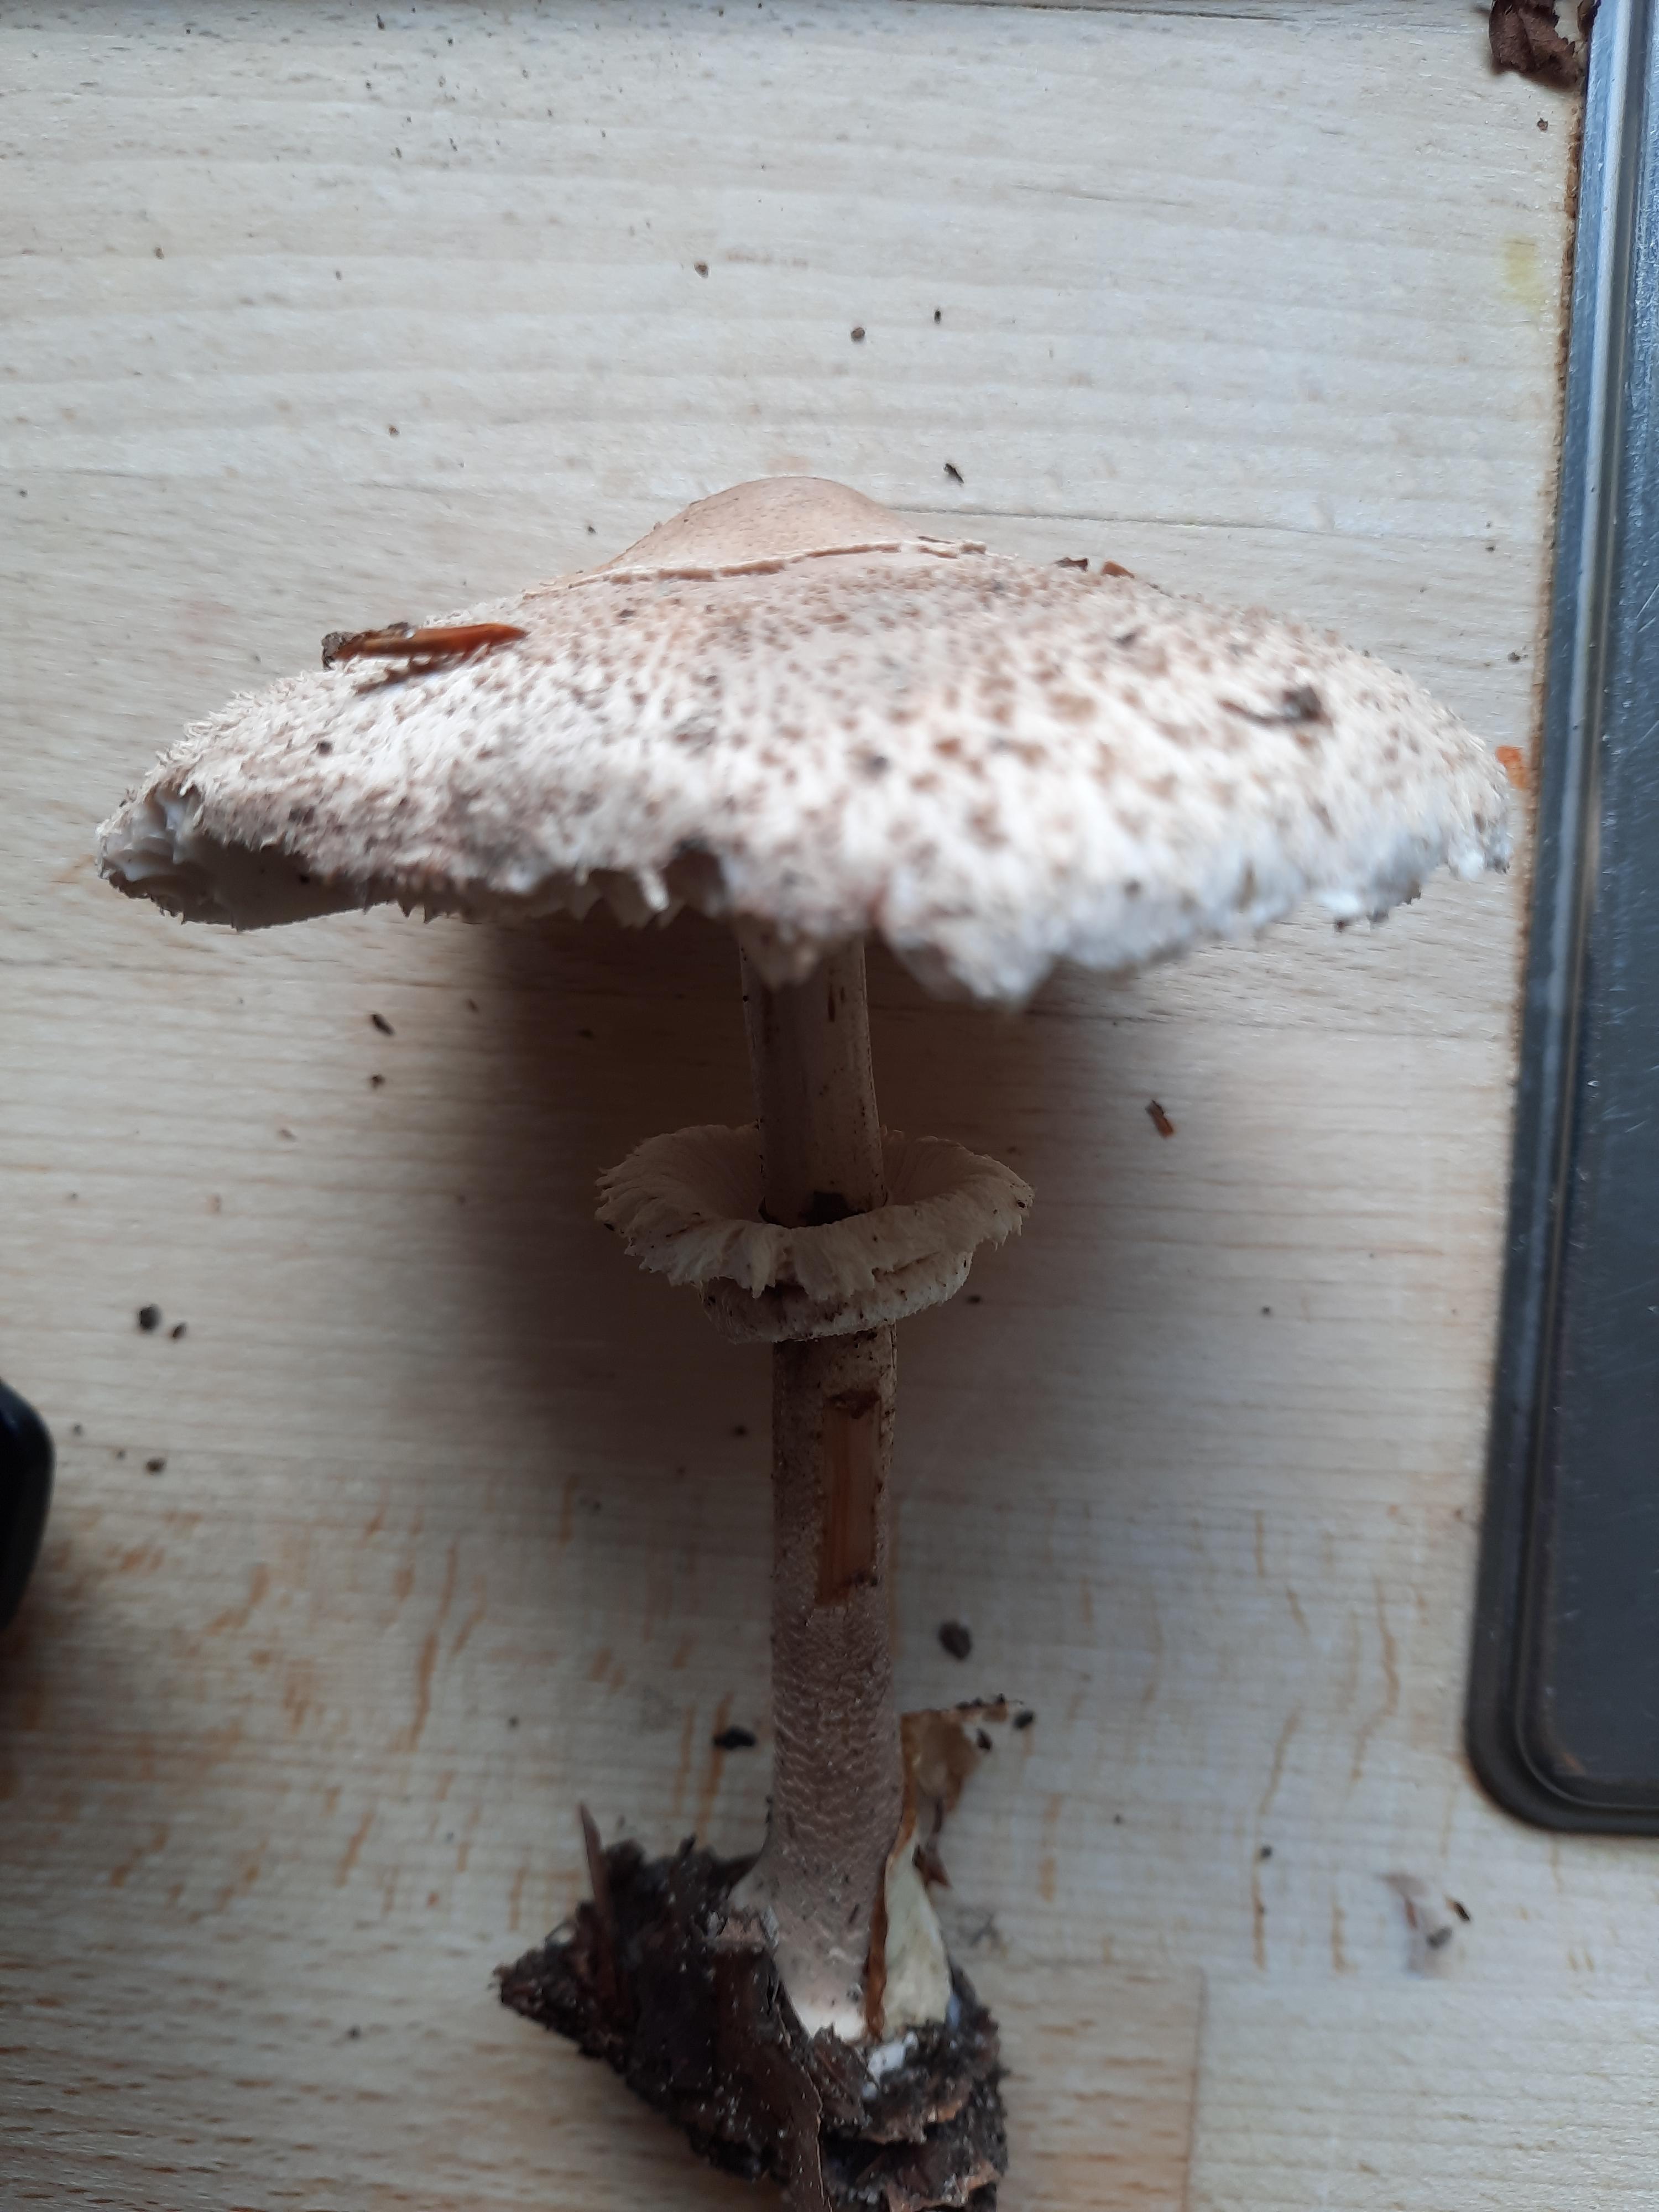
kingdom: Fungi
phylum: Basidiomycota
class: Agaricomycetes
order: Agaricales
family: Agaricaceae
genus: Macrolepiota
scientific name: Macrolepiota
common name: kæmpeparasolhat
